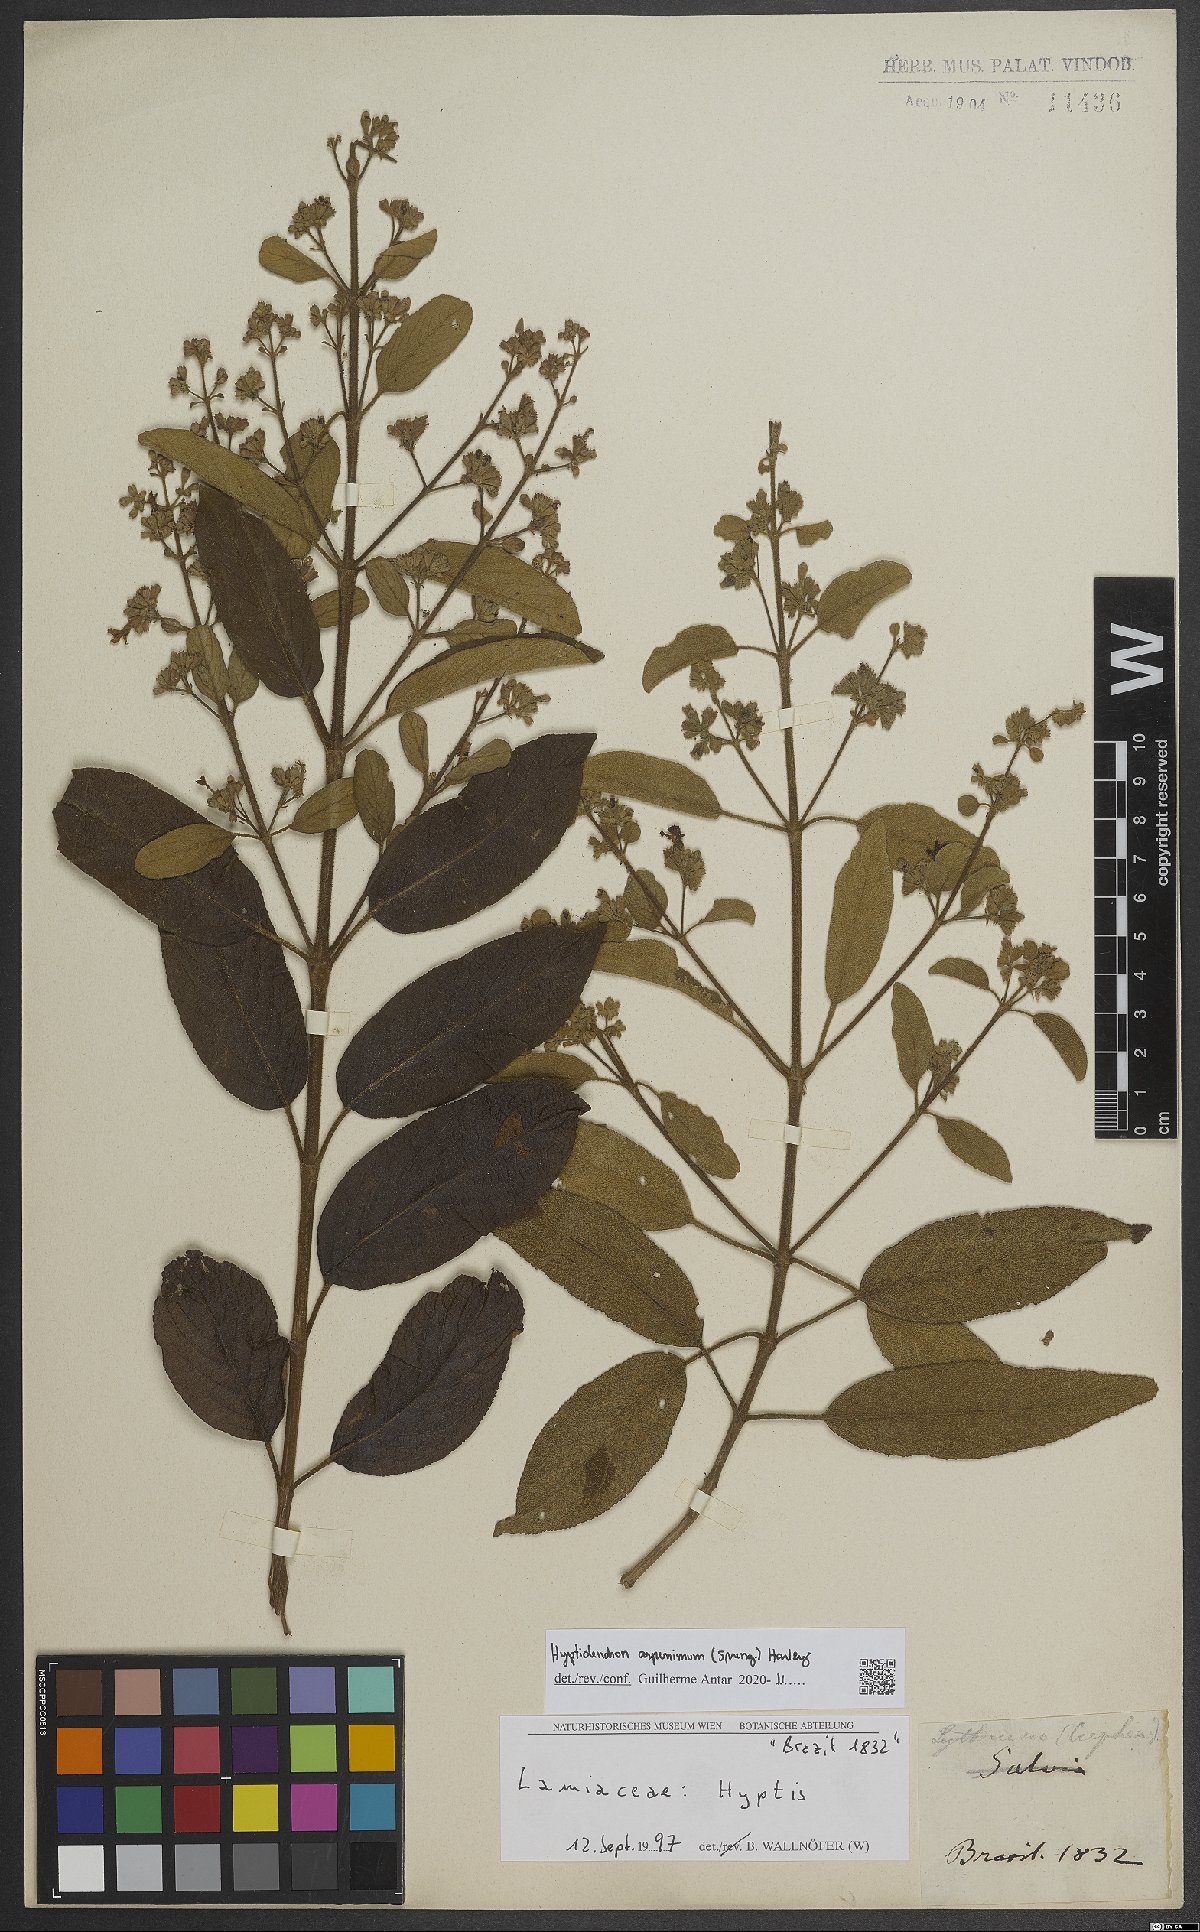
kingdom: Plantae
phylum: Tracheophyta
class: Magnoliopsida
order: Lamiales
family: Lamiaceae
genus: Hyptidendron
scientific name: Hyptidendron asperrimum
